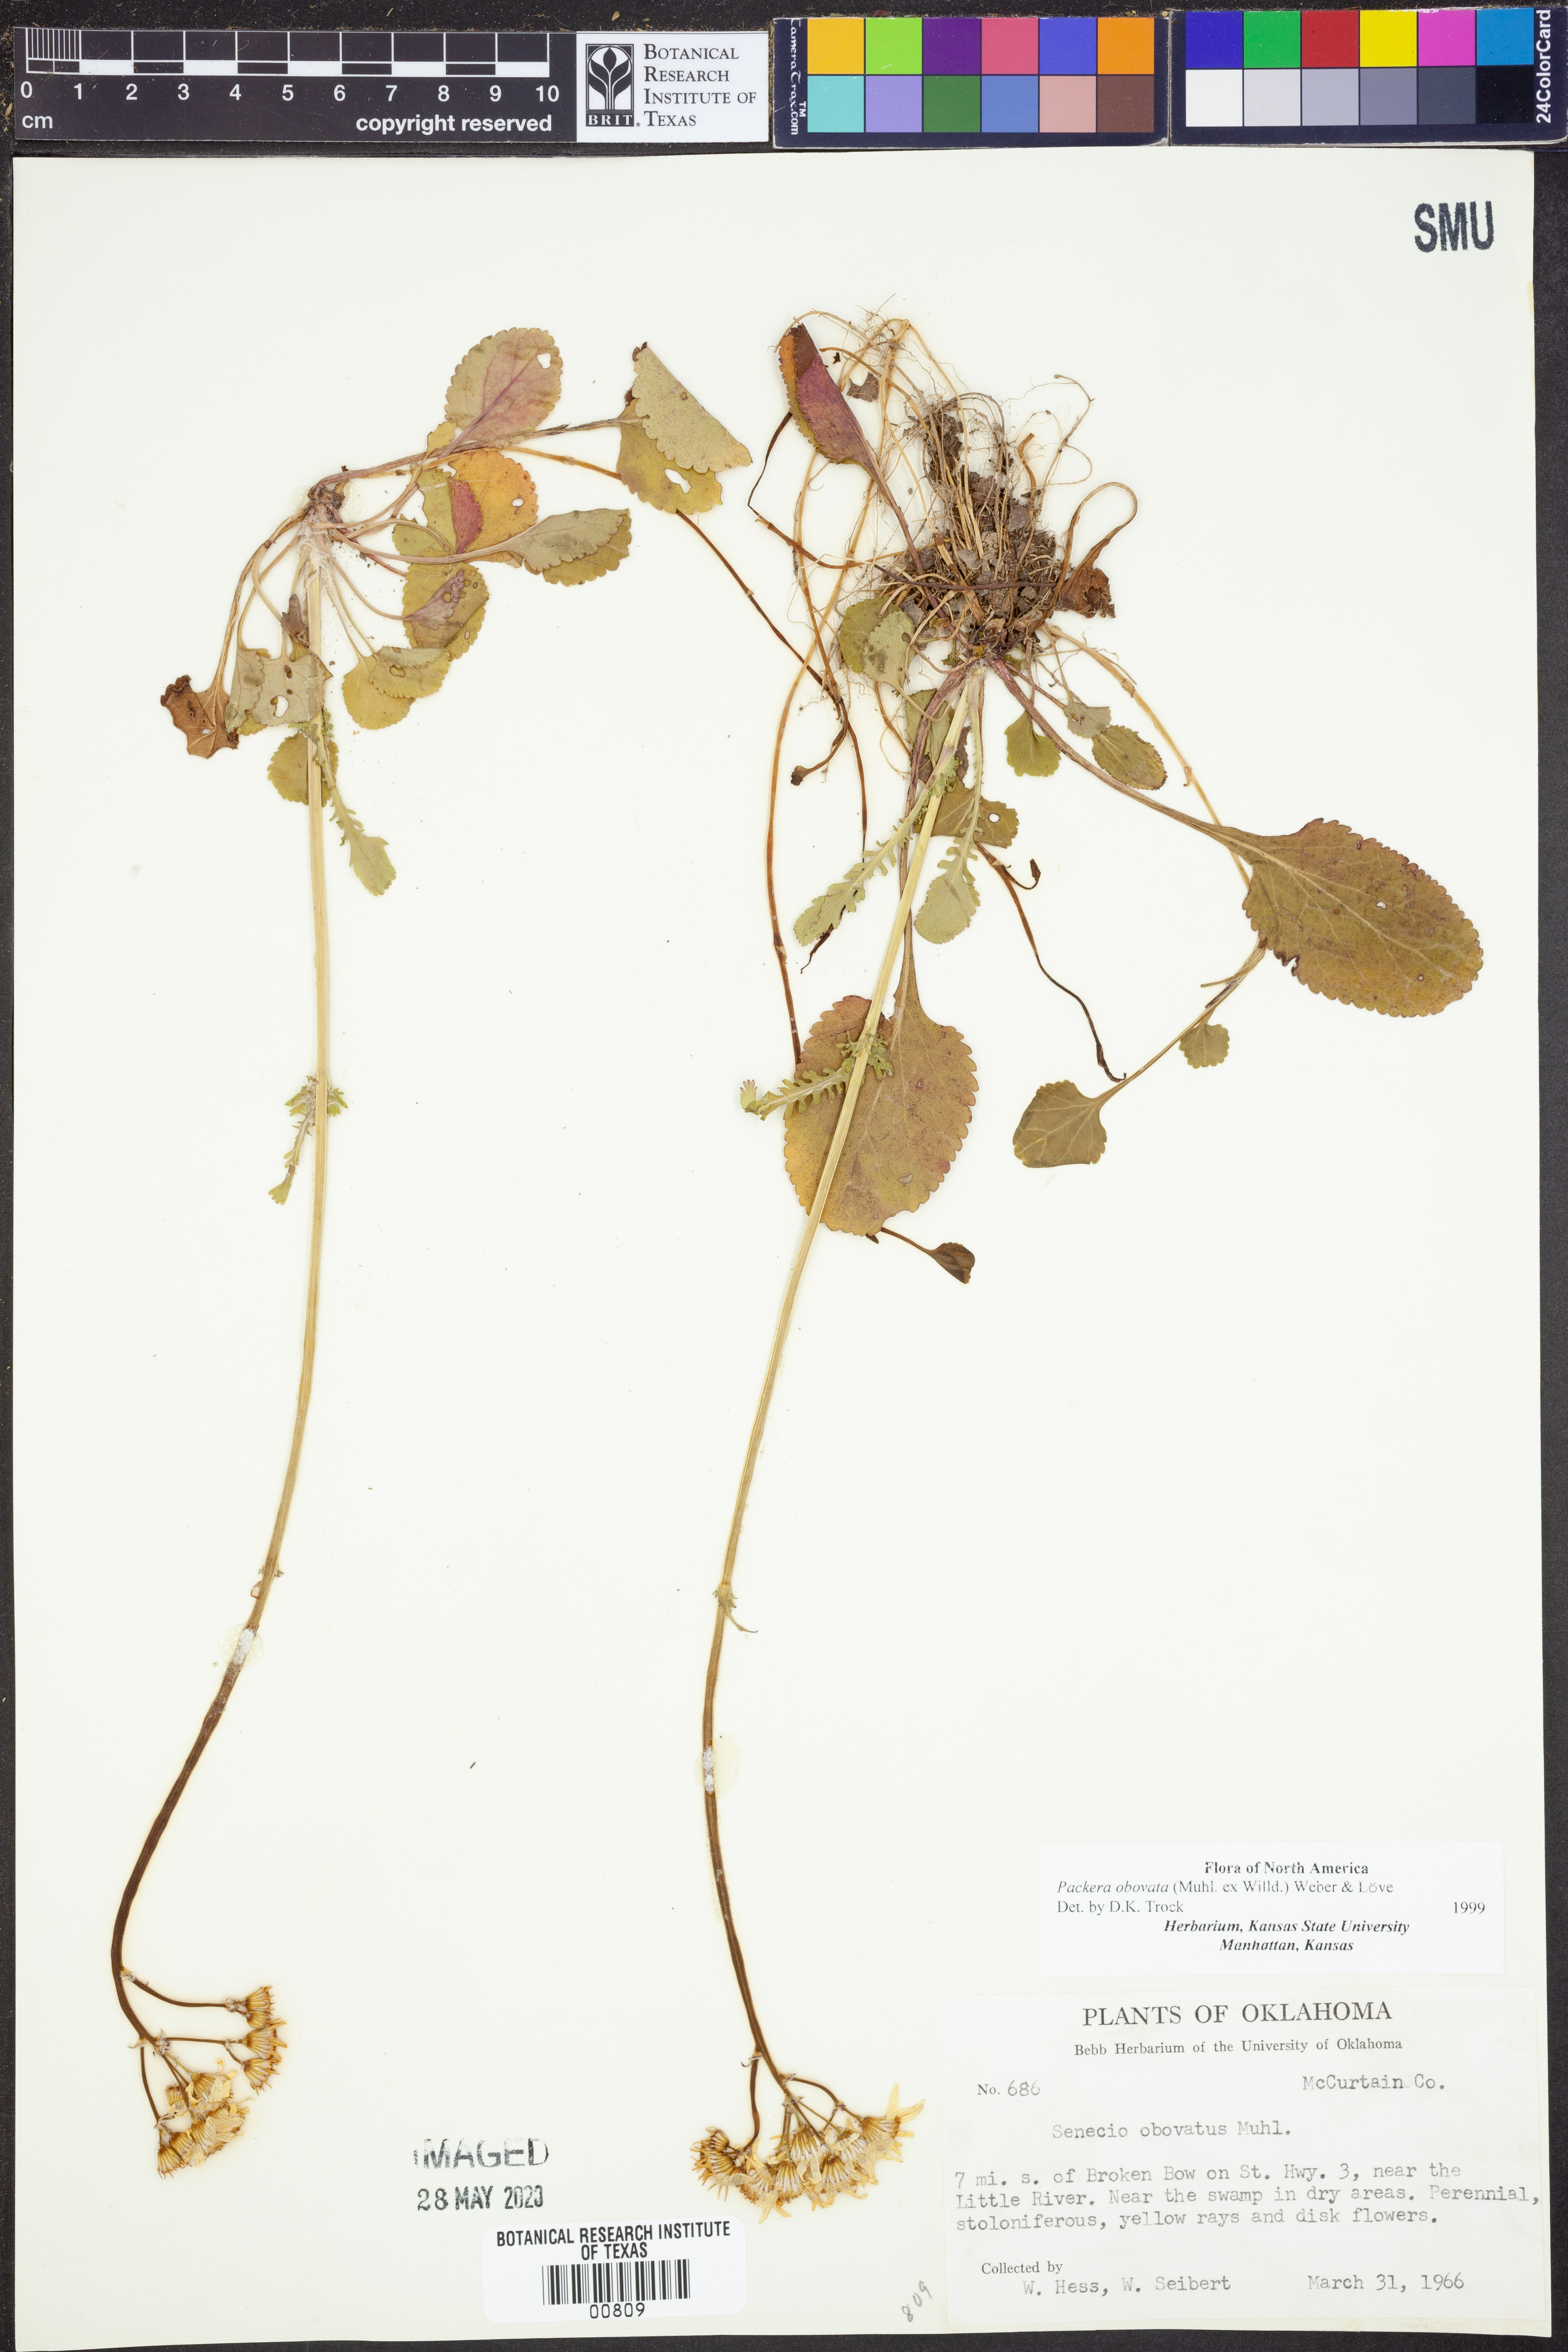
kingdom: Plantae
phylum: Tracheophyta
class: Magnoliopsida
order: Asterales
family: Asteraceae
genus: Packera
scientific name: Packera obovata
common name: Round-leaf ragwort
